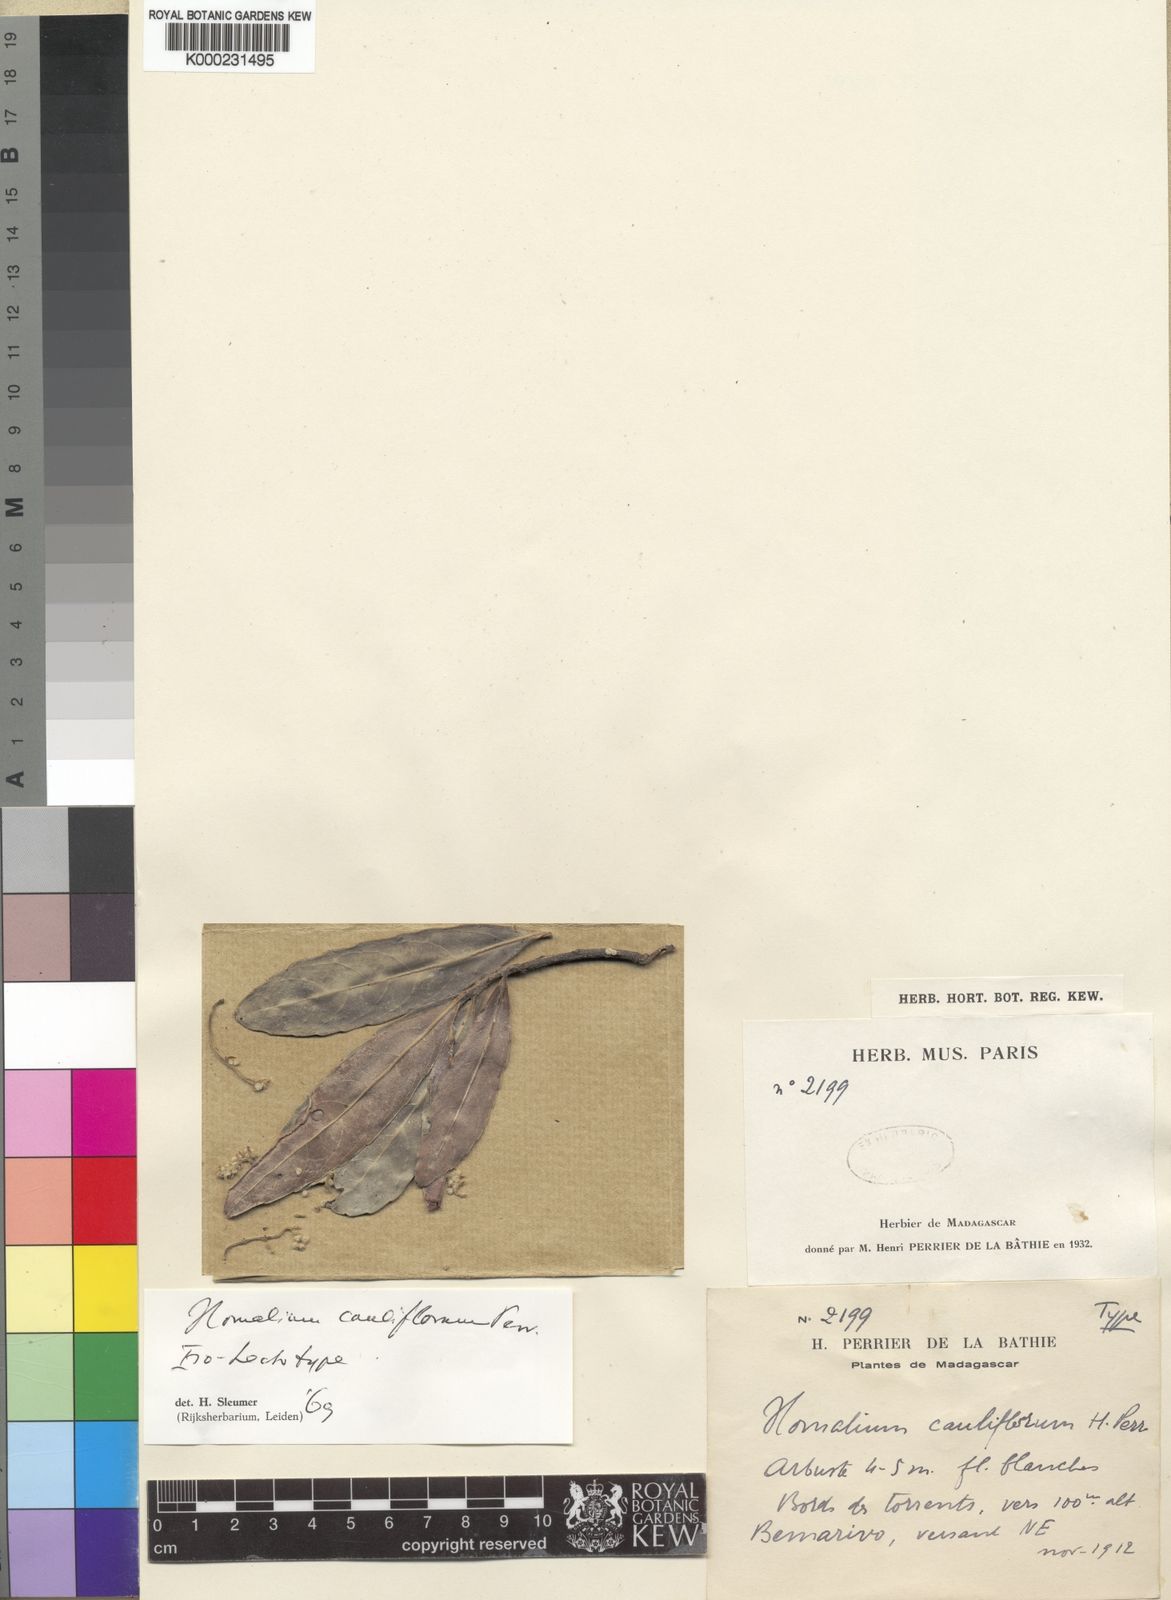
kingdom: Plantae
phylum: Tracheophyta
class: Magnoliopsida
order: Malpighiales
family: Salicaceae
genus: Homalium
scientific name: Homalium cauliflorum
